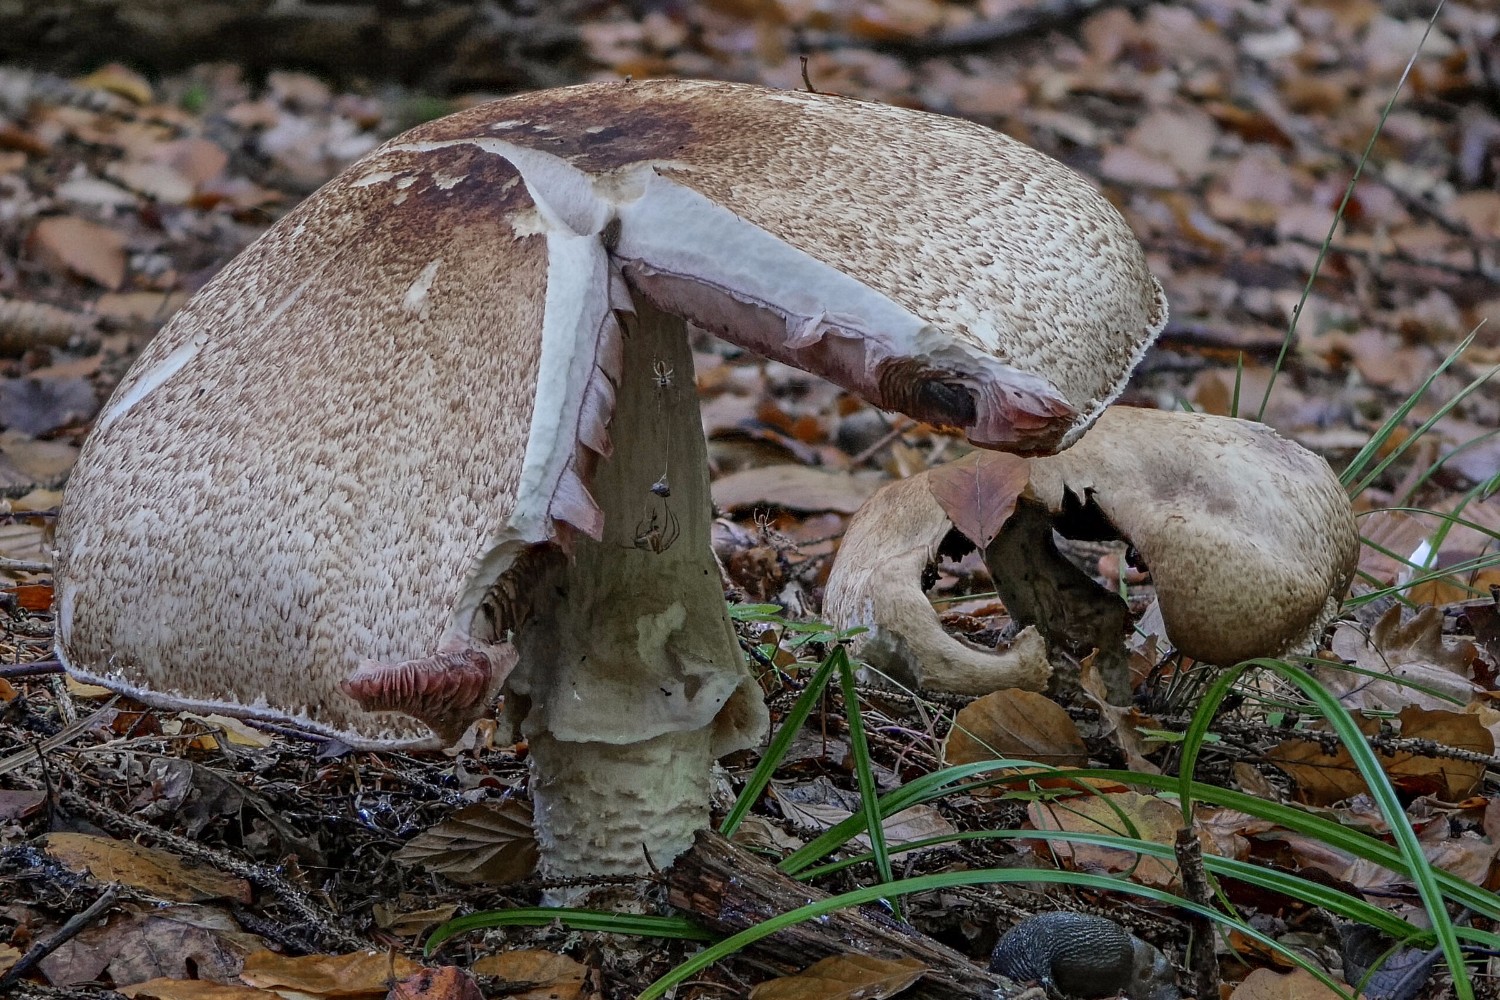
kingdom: Fungi
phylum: Basidiomycota
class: Agaricomycetes
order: Agaricales
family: Agaricaceae
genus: Agaricus
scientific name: Agaricus augustus
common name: prægtig champignon
